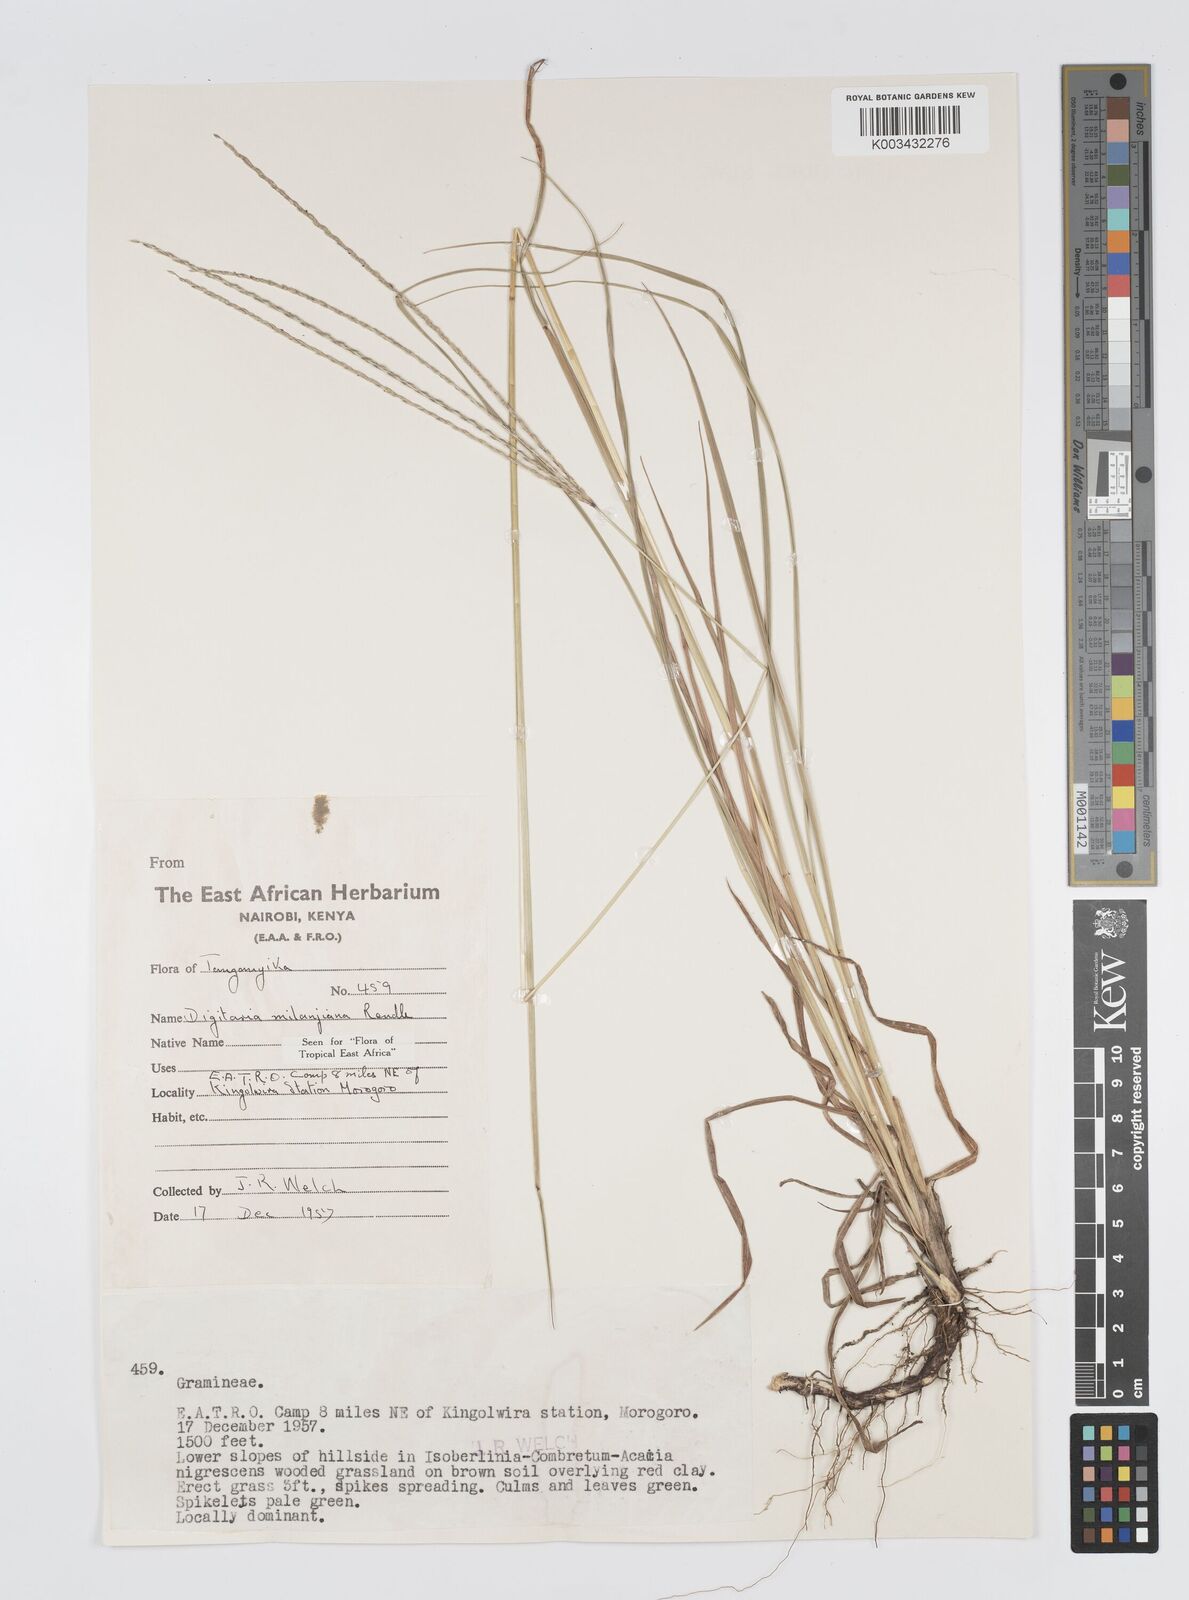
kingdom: Plantae
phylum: Tracheophyta
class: Liliopsida
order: Poales
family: Poaceae
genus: Digitaria
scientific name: Digitaria milanjiana
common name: Madagascar crabgrass
